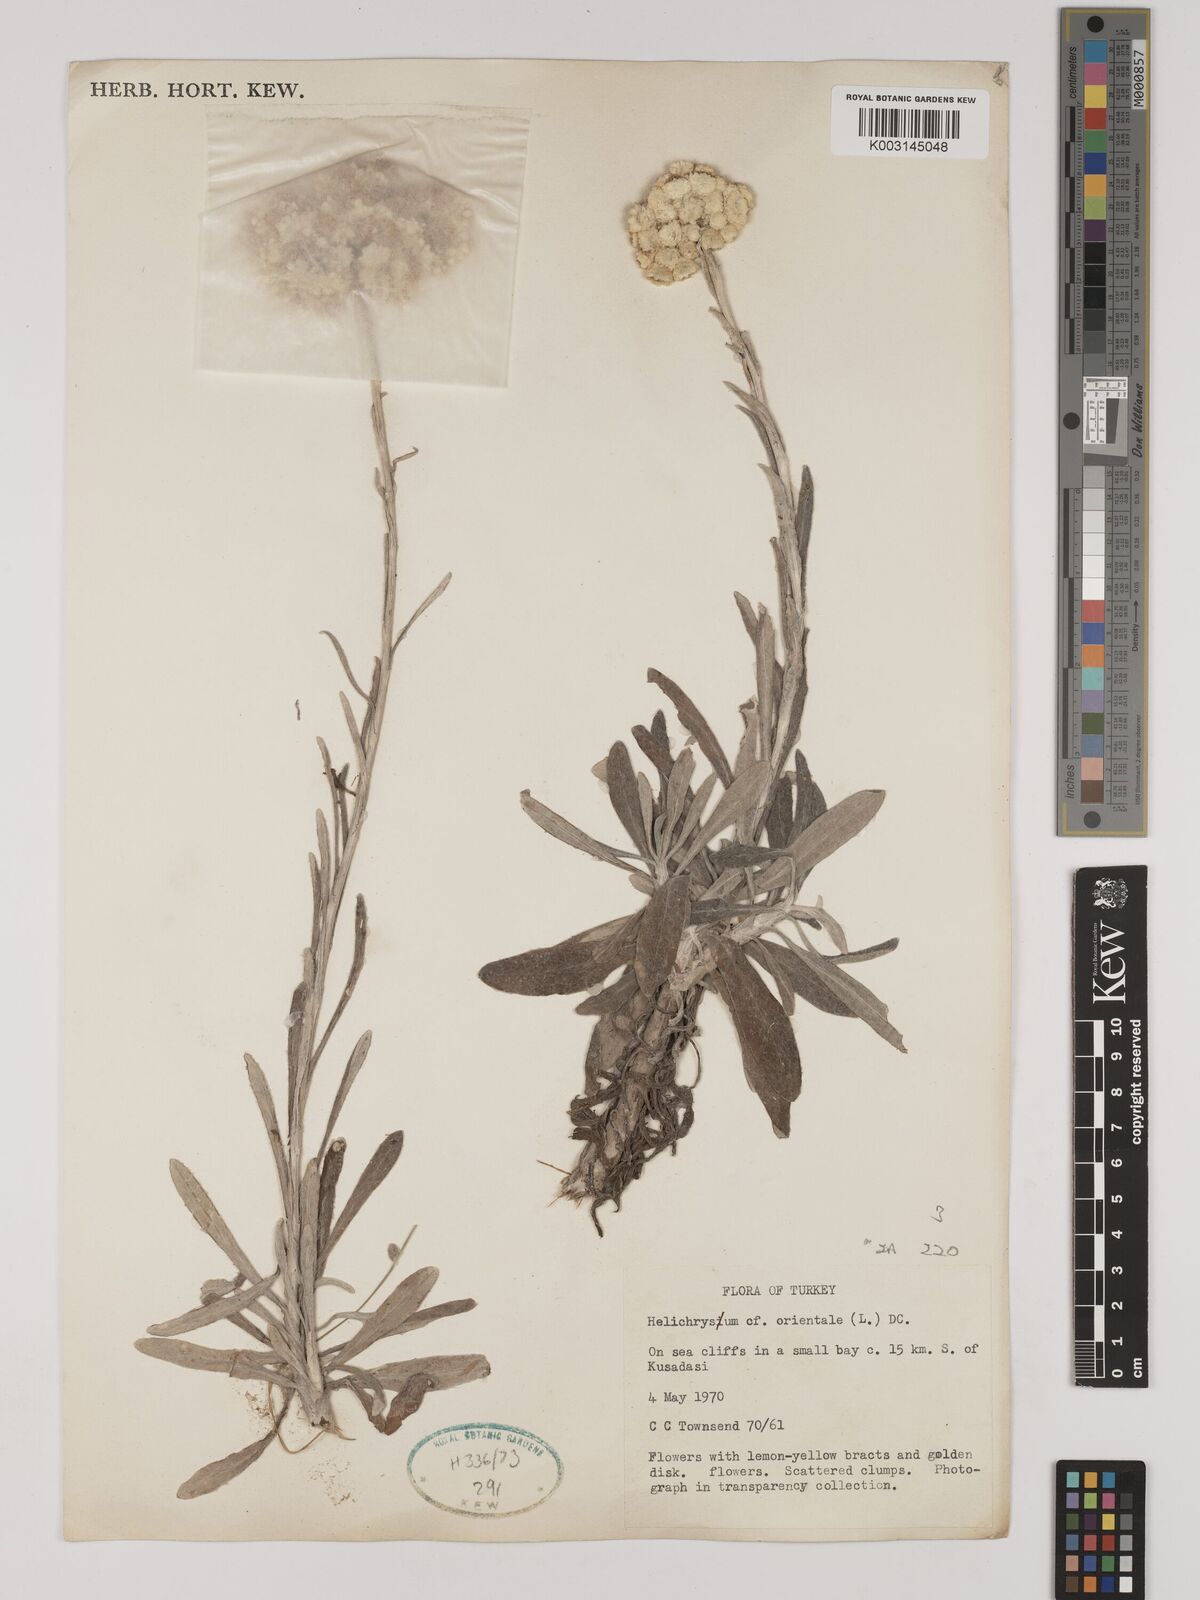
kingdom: Plantae
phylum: Tracheophyta
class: Magnoliopsida
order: Asterales
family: Asteraceae
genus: Helichrysum
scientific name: Helichrysum orientale
